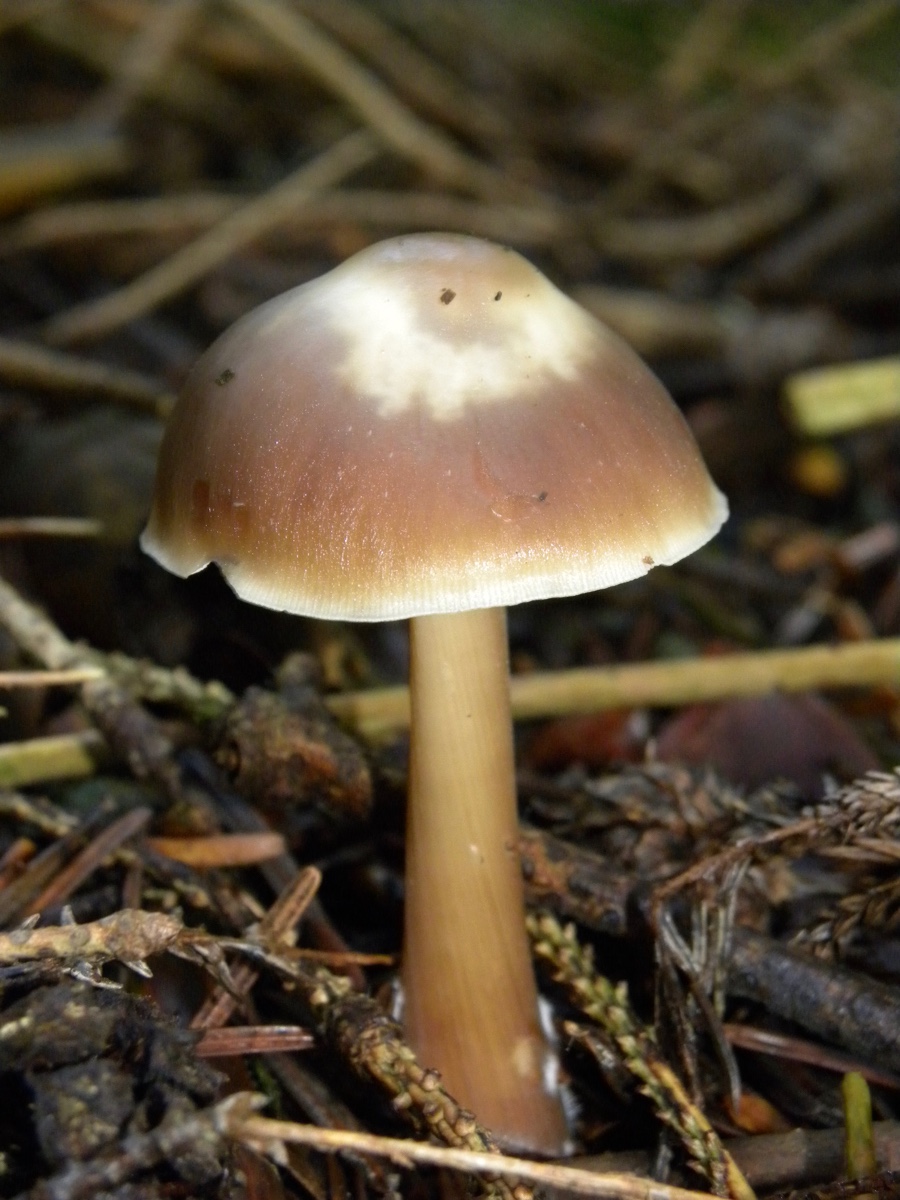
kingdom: Fungi
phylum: Basidiomycota
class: Agaricomycetes
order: Agaricales
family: Omphalotaceae
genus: Rhodocollybia
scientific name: Rhodocollybia asema
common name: horngrå fladhat
